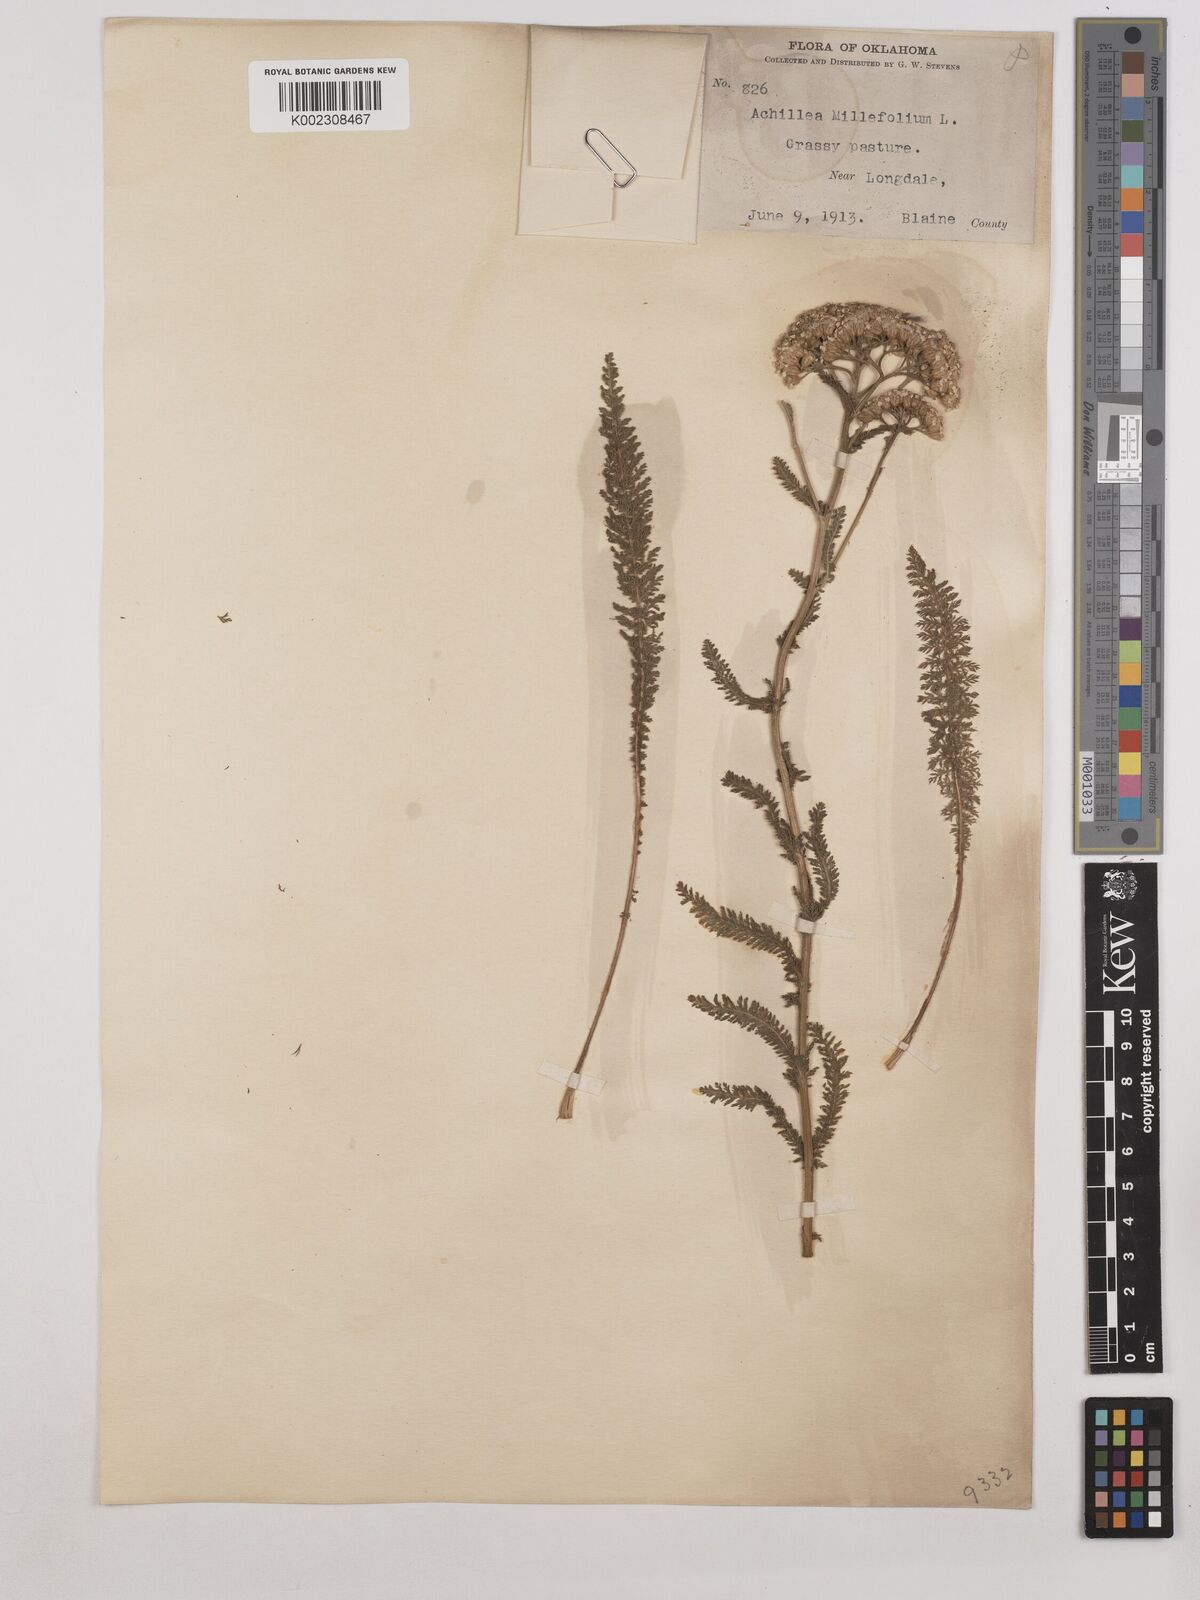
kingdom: Plantae
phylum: Tracheophyta
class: Magnoliopsida
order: Asterales
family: Asteraceae
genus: Achillea
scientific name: Achillea millefolium
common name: Yarrow
